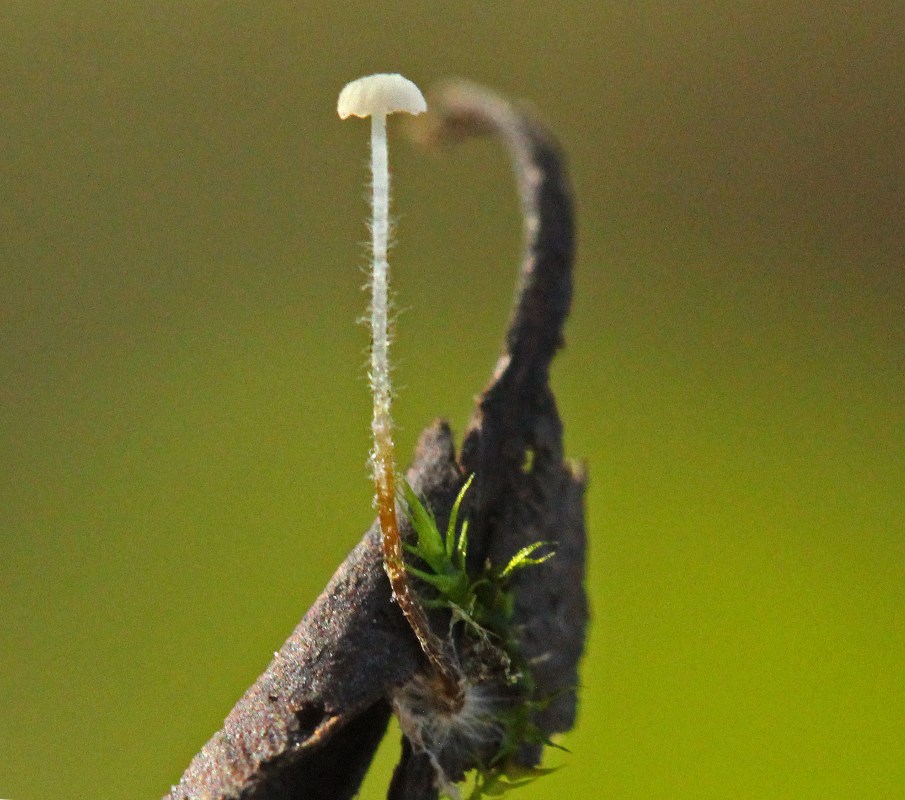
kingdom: Fungi
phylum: Basidiomycota
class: Agaricomycetes
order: Agaricales
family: Physalacriaceae
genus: Rhizomarasmius
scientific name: Rhizomarasmius setosus
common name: bøgeblads-bruskhat
